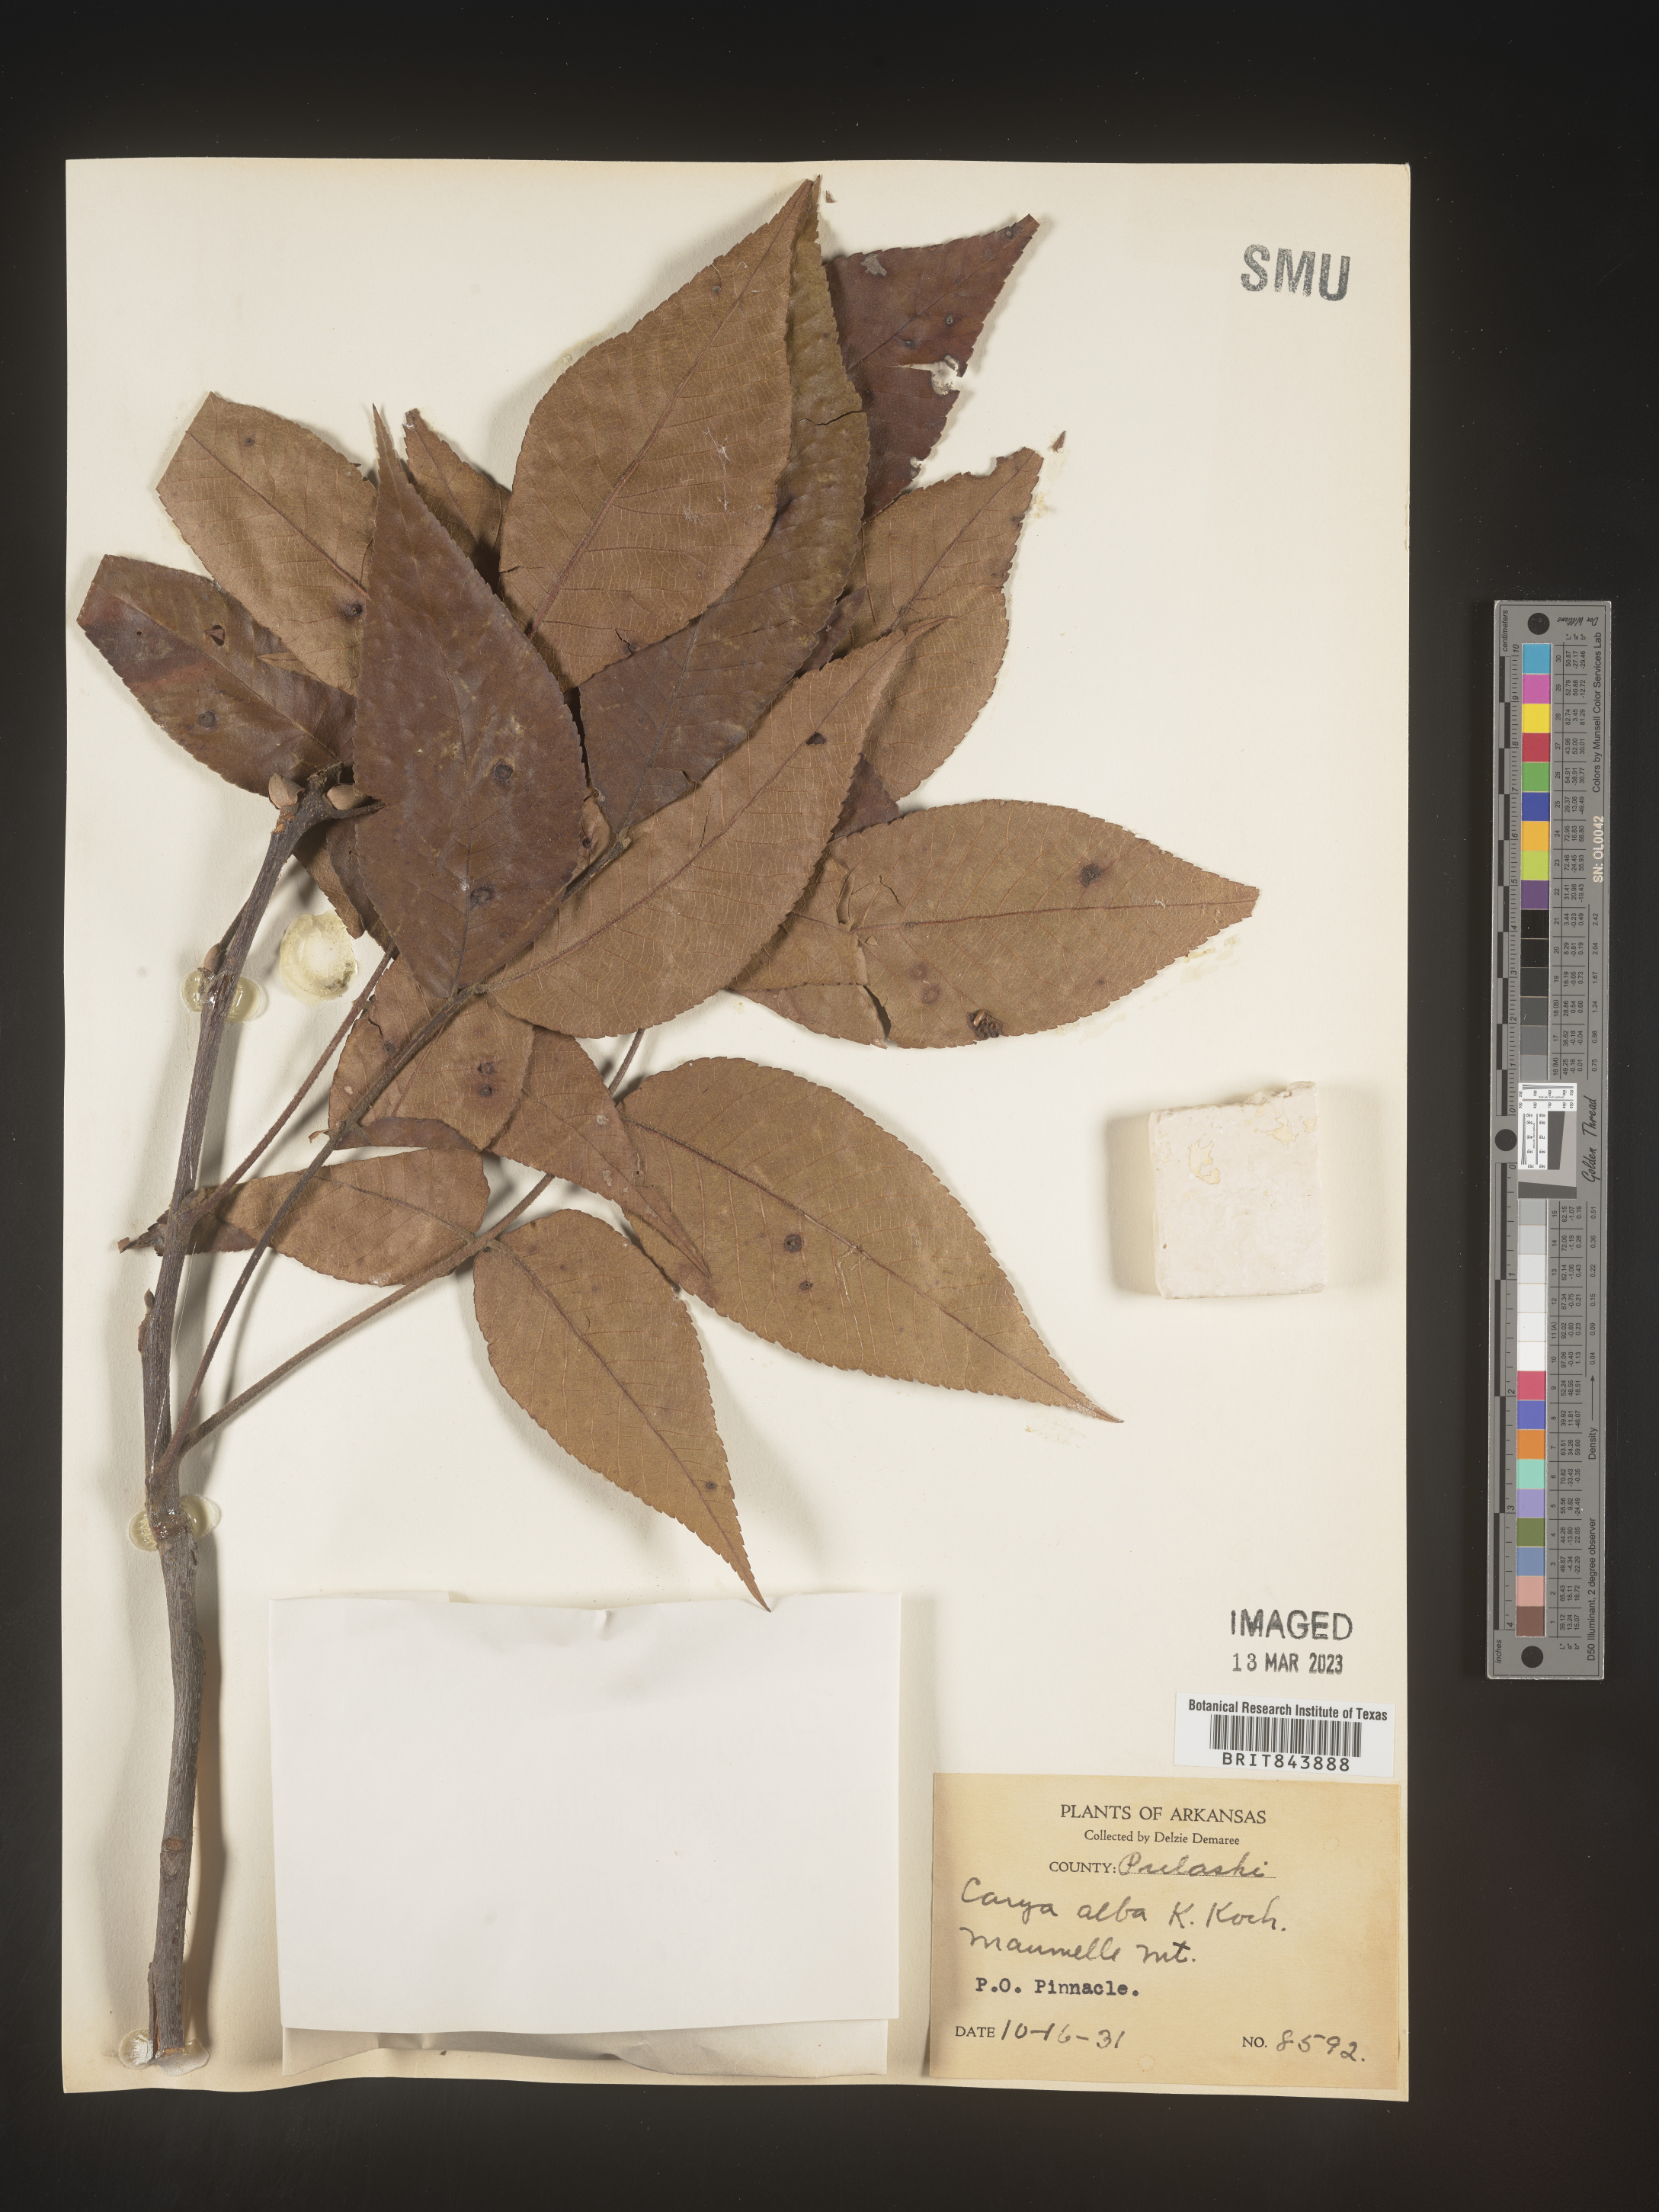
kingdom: Plantae
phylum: Tracheophyta
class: Magnoliopsida
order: Fagales
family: Juglandaceae
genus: Carya
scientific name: Carya alba
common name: Mockernut hickory
